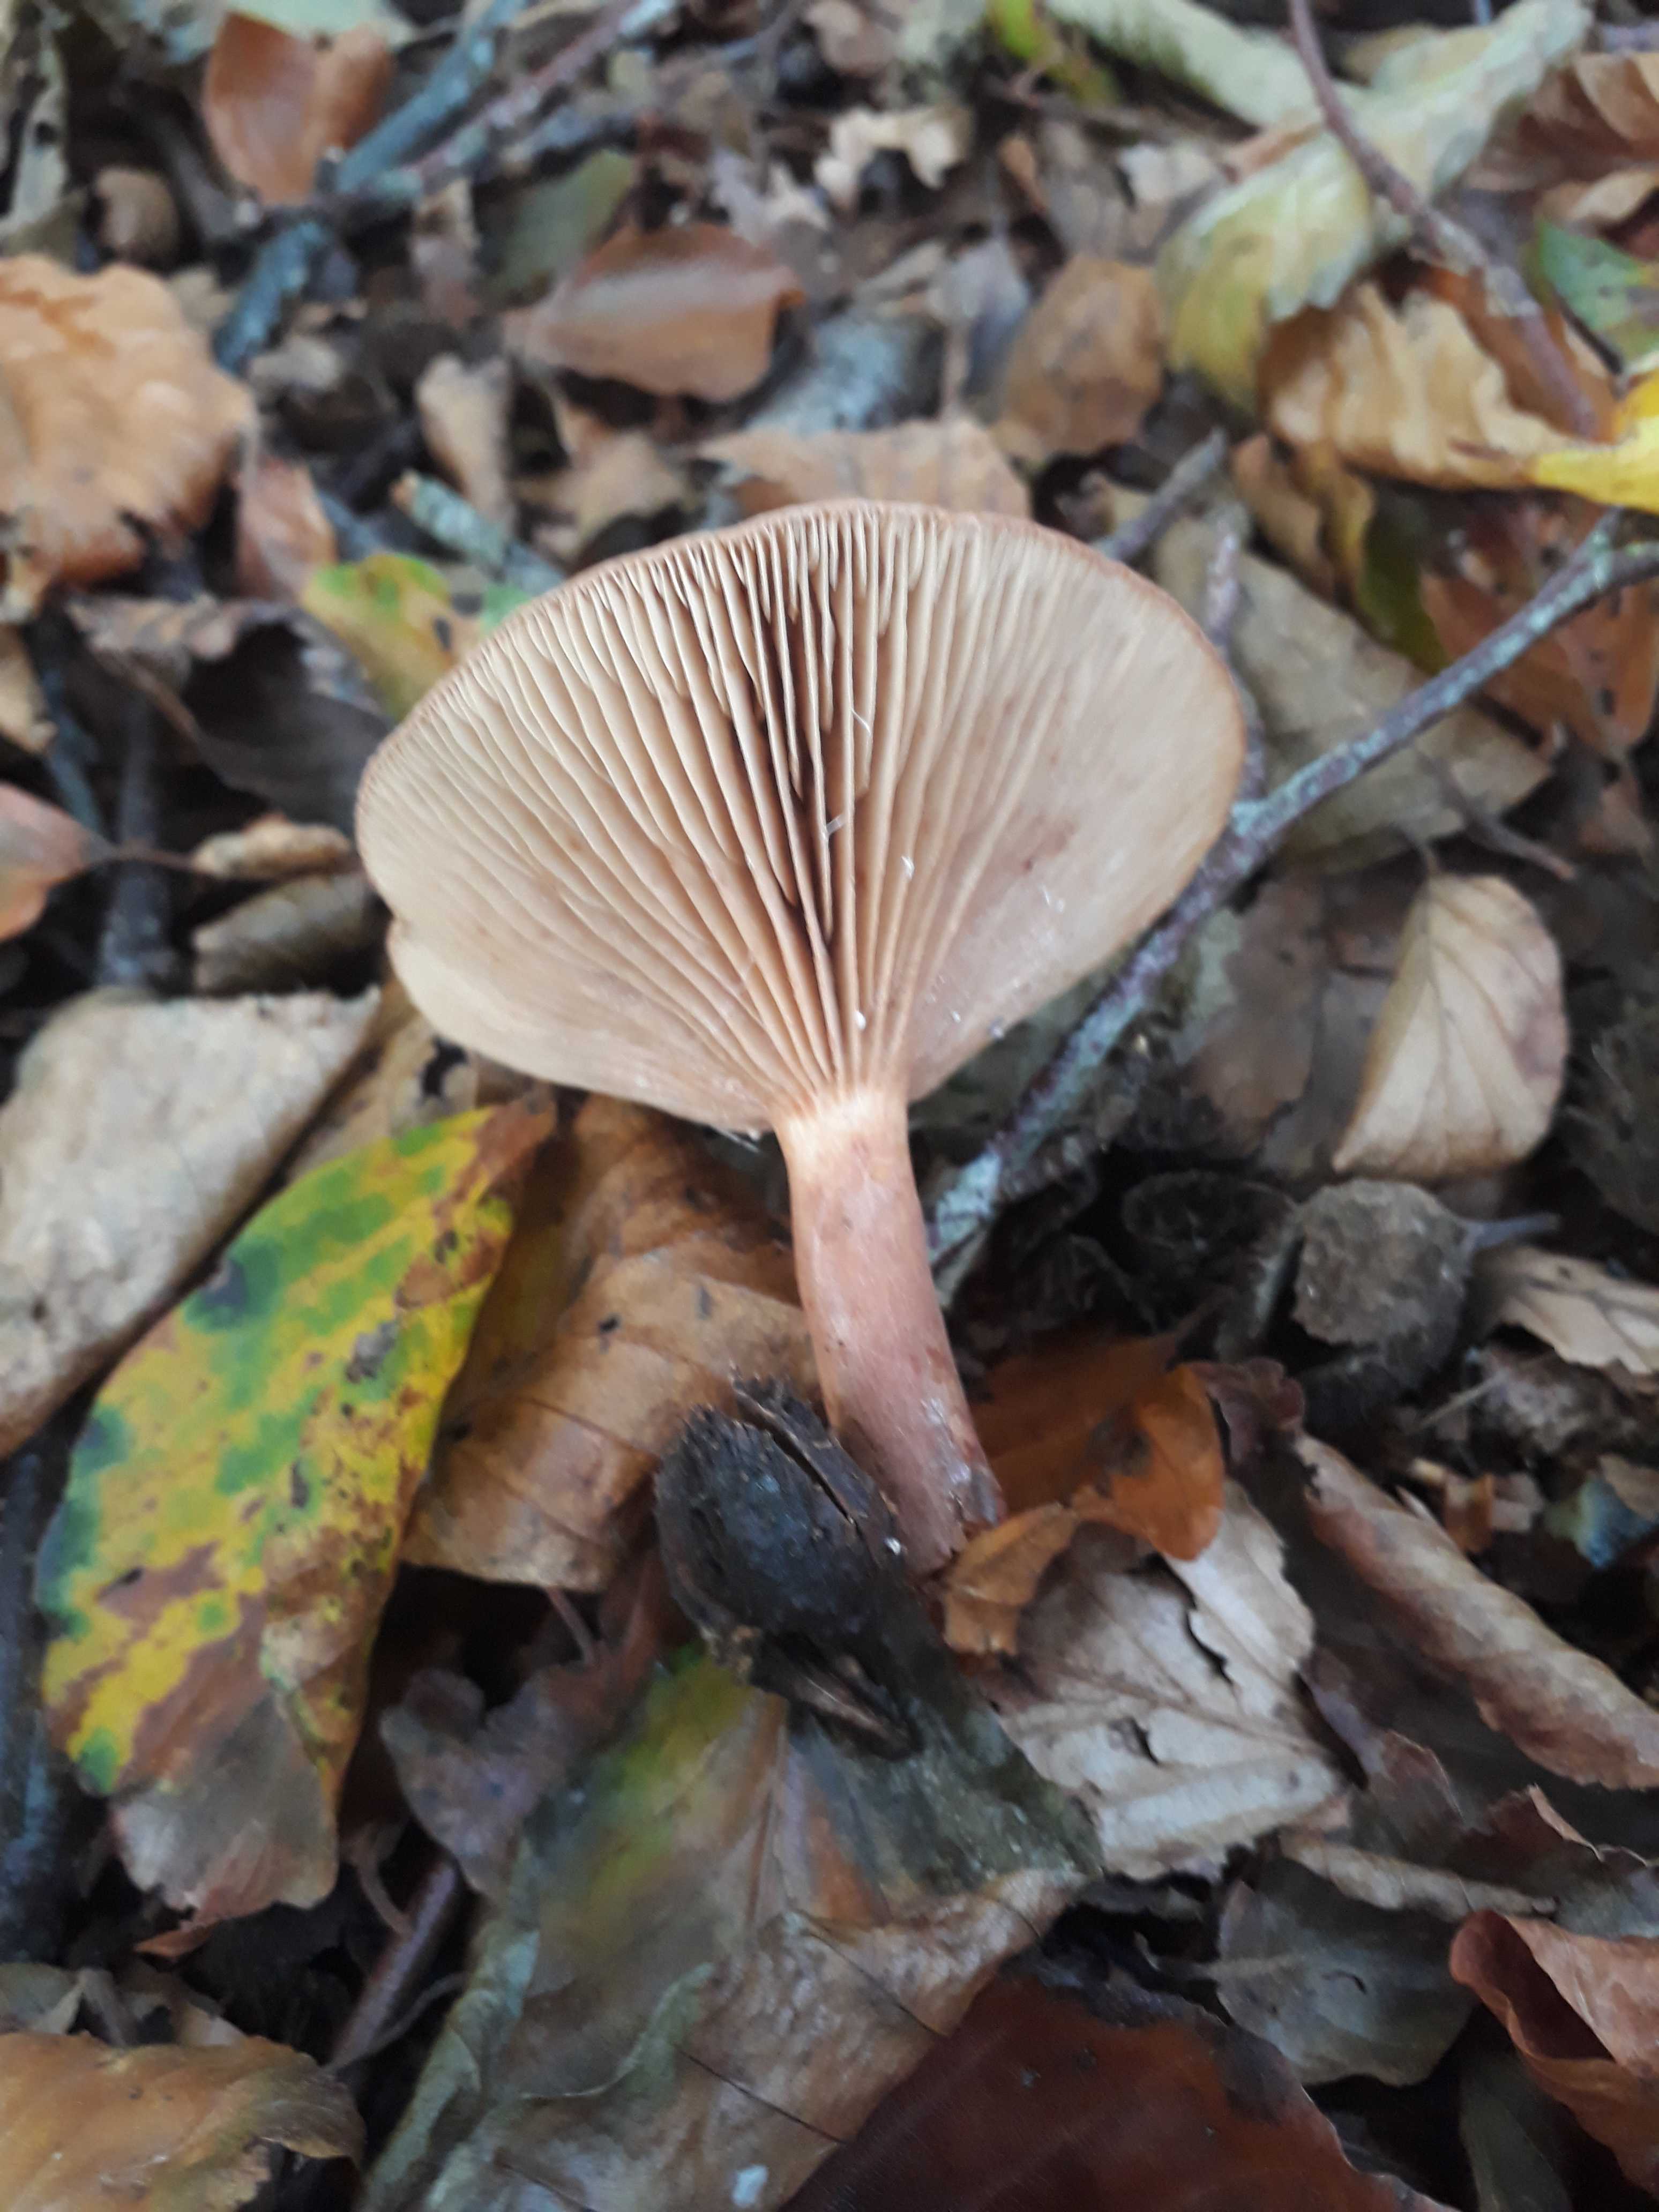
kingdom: Fungi
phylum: Basidiomycota
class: Agaricomycetes
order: Russulales
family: Russulaceae
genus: Lactarius
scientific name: Lactarius subdulcis
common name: sødlig mælkehat
